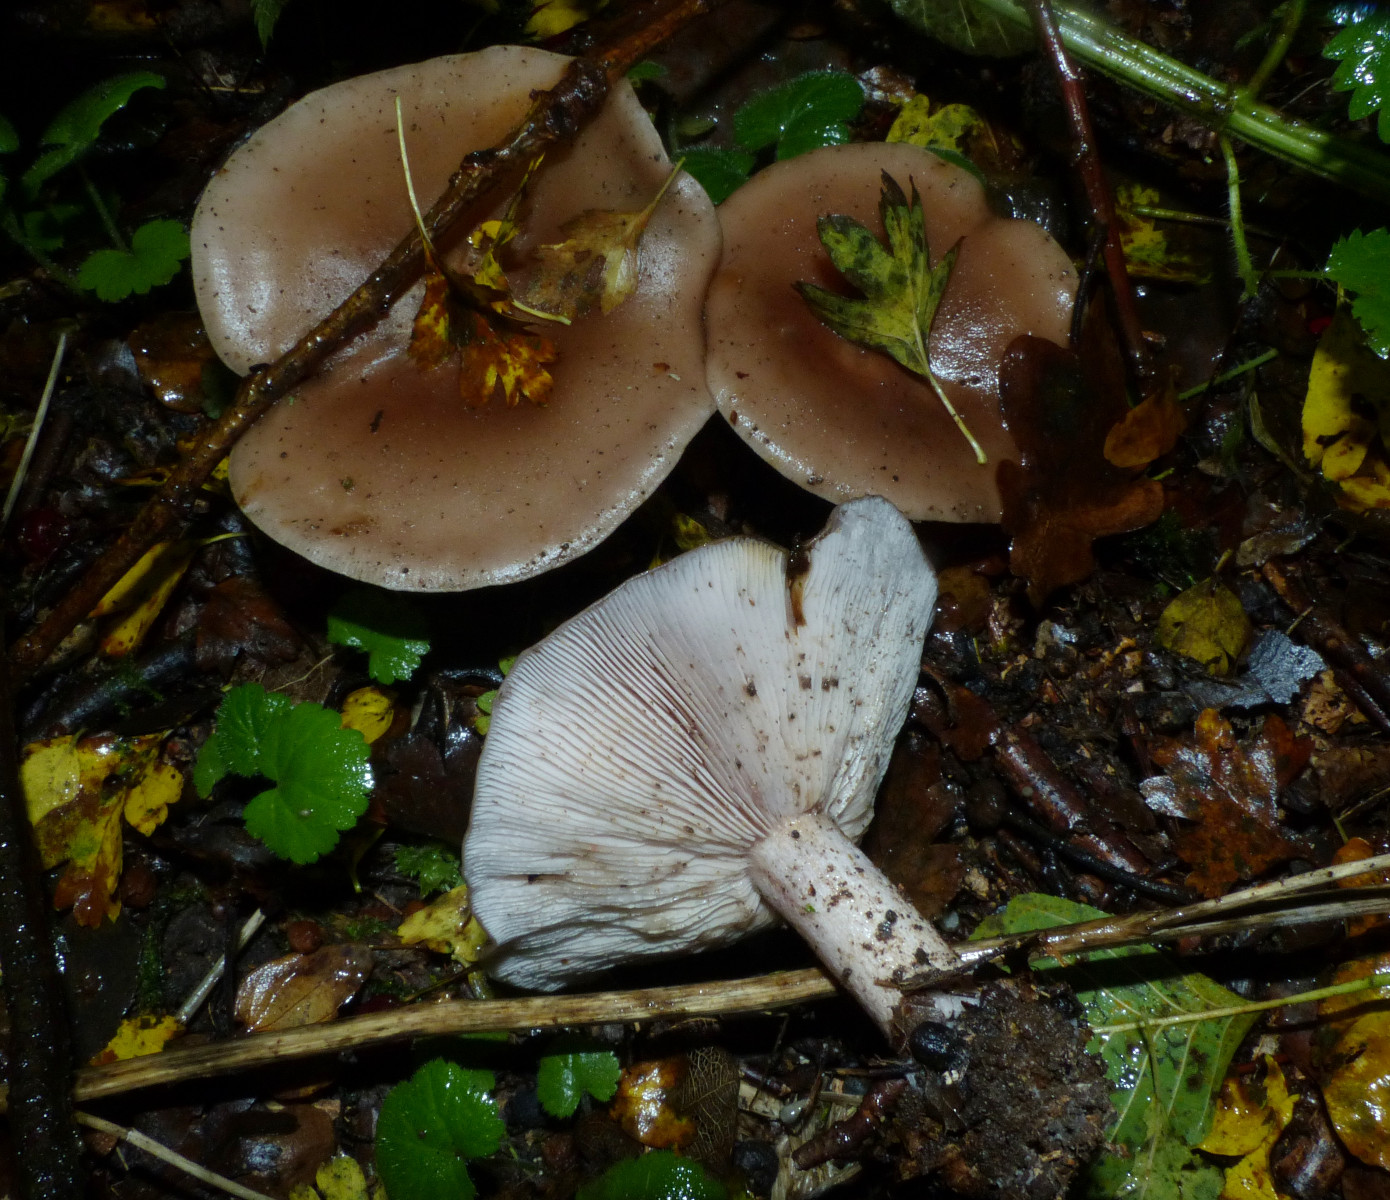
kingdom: Fungi
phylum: Basidiomycota
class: Agaricomycetes
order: Agaricales
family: Tricholomataceae
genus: Lepista
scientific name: Lepista
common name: hekseringshat
